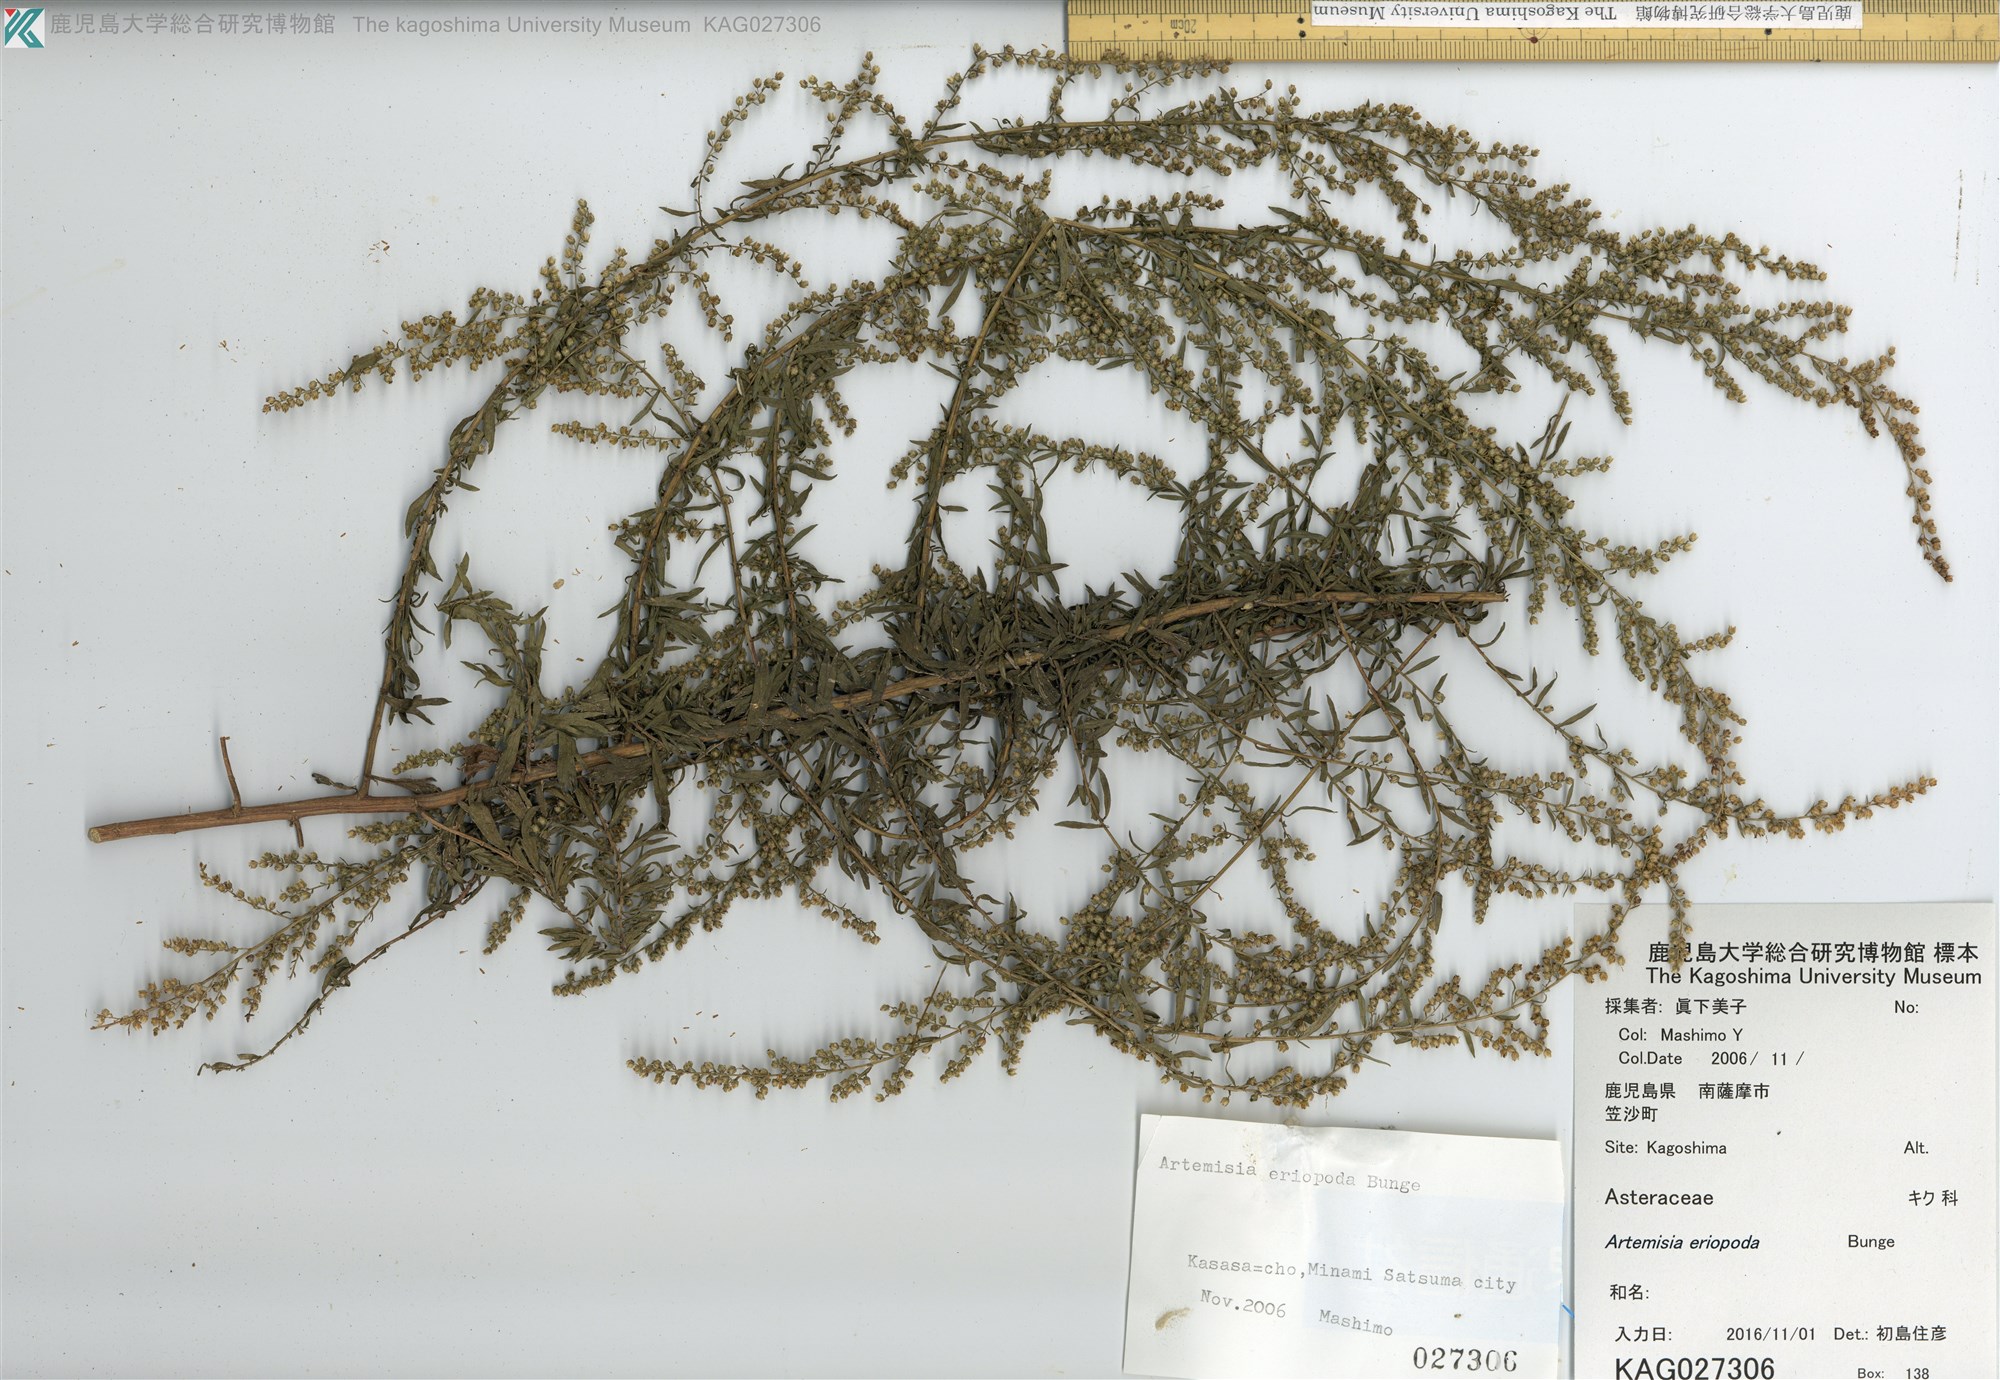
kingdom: Plantae
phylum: Tracheophyta
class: Magnoliopsida
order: Asterales
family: Asteraceae
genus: Artemisia
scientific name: Artemisia eriopoda
